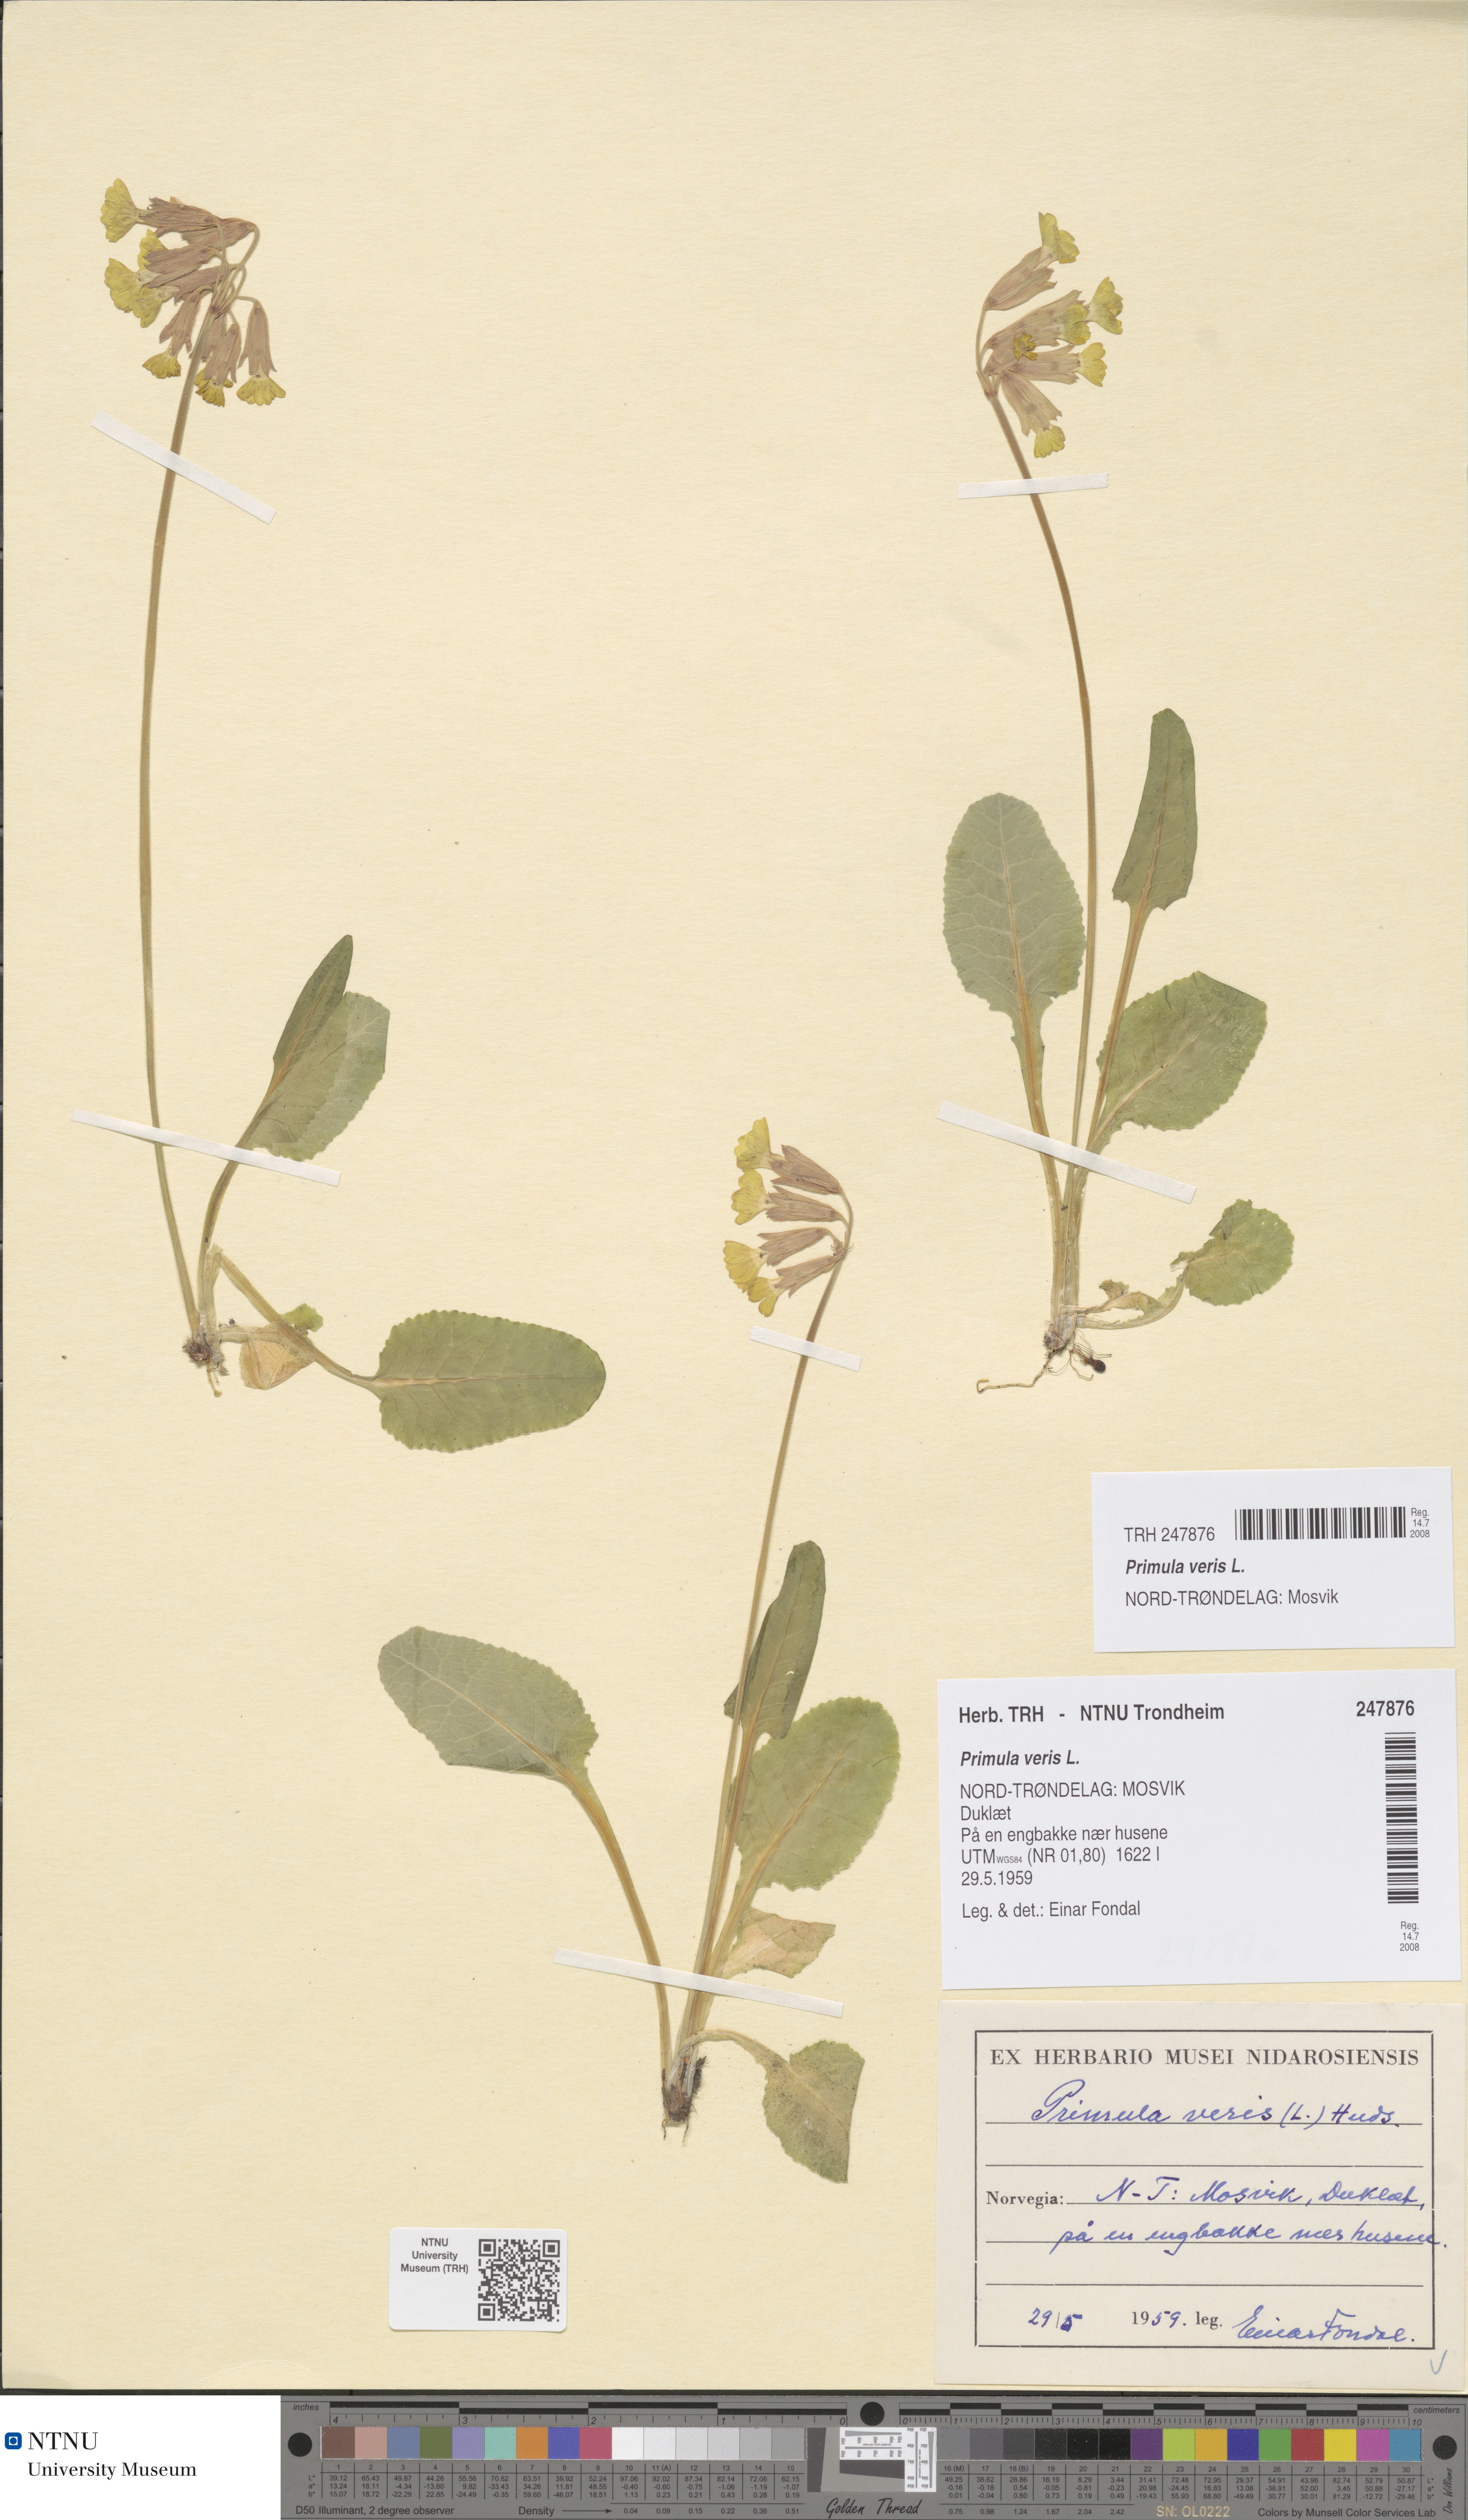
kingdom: Plantae
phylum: Tracheophyta
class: Magnoliopsida
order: Ericales
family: Primulaceae
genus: Primula
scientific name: Primula veris
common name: Cowslip
